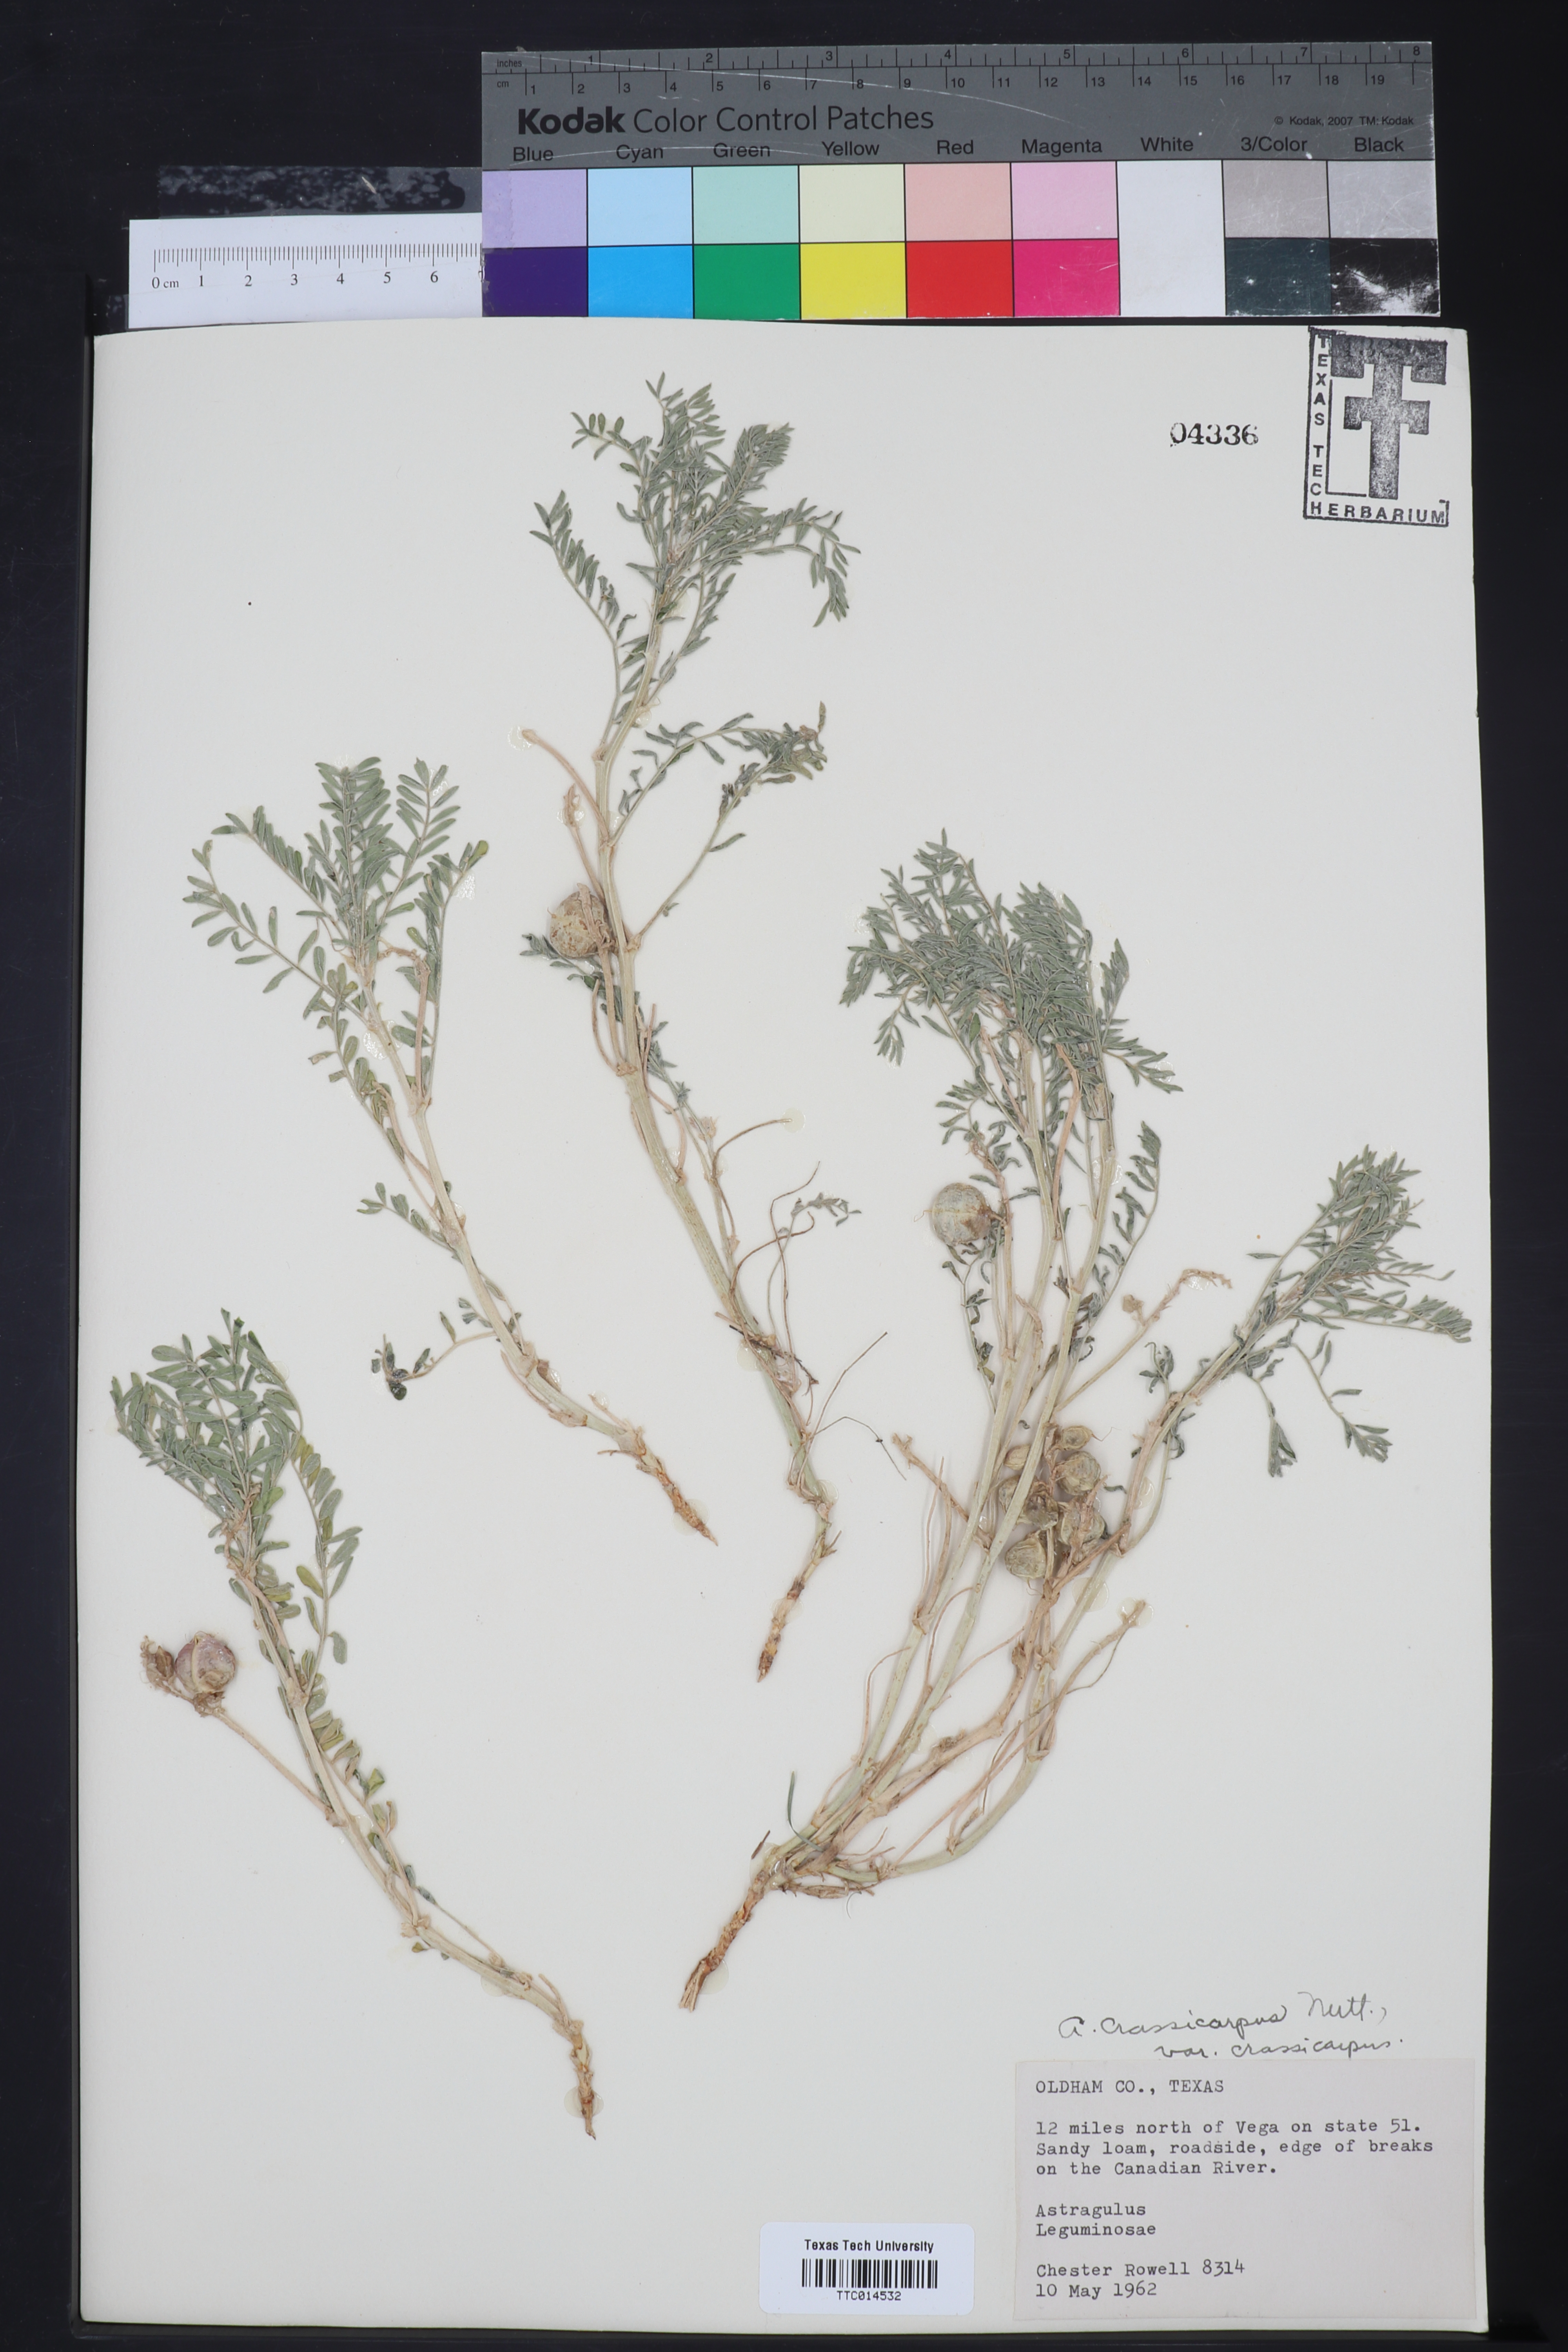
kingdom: Plantae
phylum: Tracheophyta
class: Magnoliopsida
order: Fabales
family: Fabaceae
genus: Astragalus
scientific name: Astragalus crassicarpus
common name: Ground-plum milk-vetch
